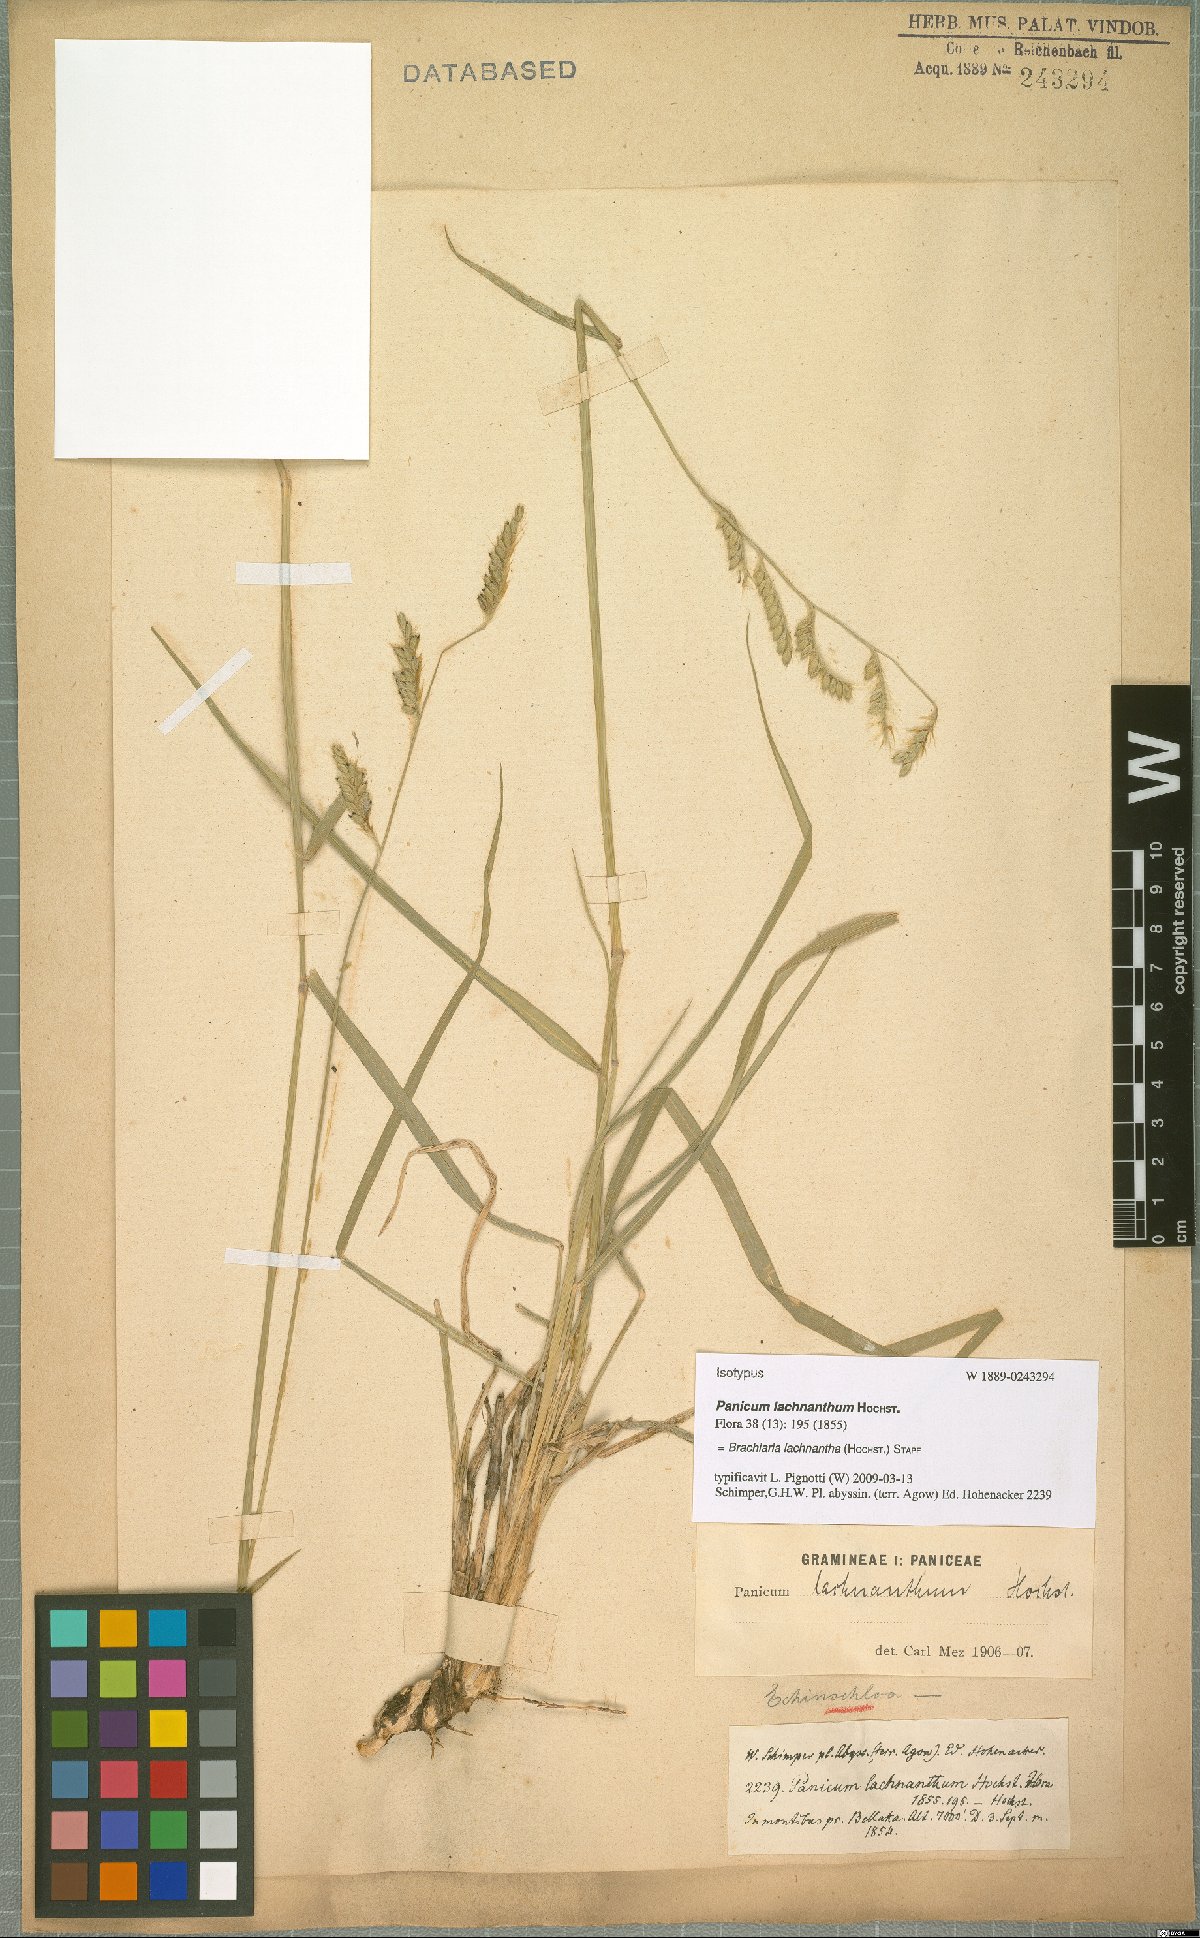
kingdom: Plantae
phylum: Tracheophyta
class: Liliopsida
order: Poales
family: Poaceae
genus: Urochloa
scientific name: Urochloa lachnantha
